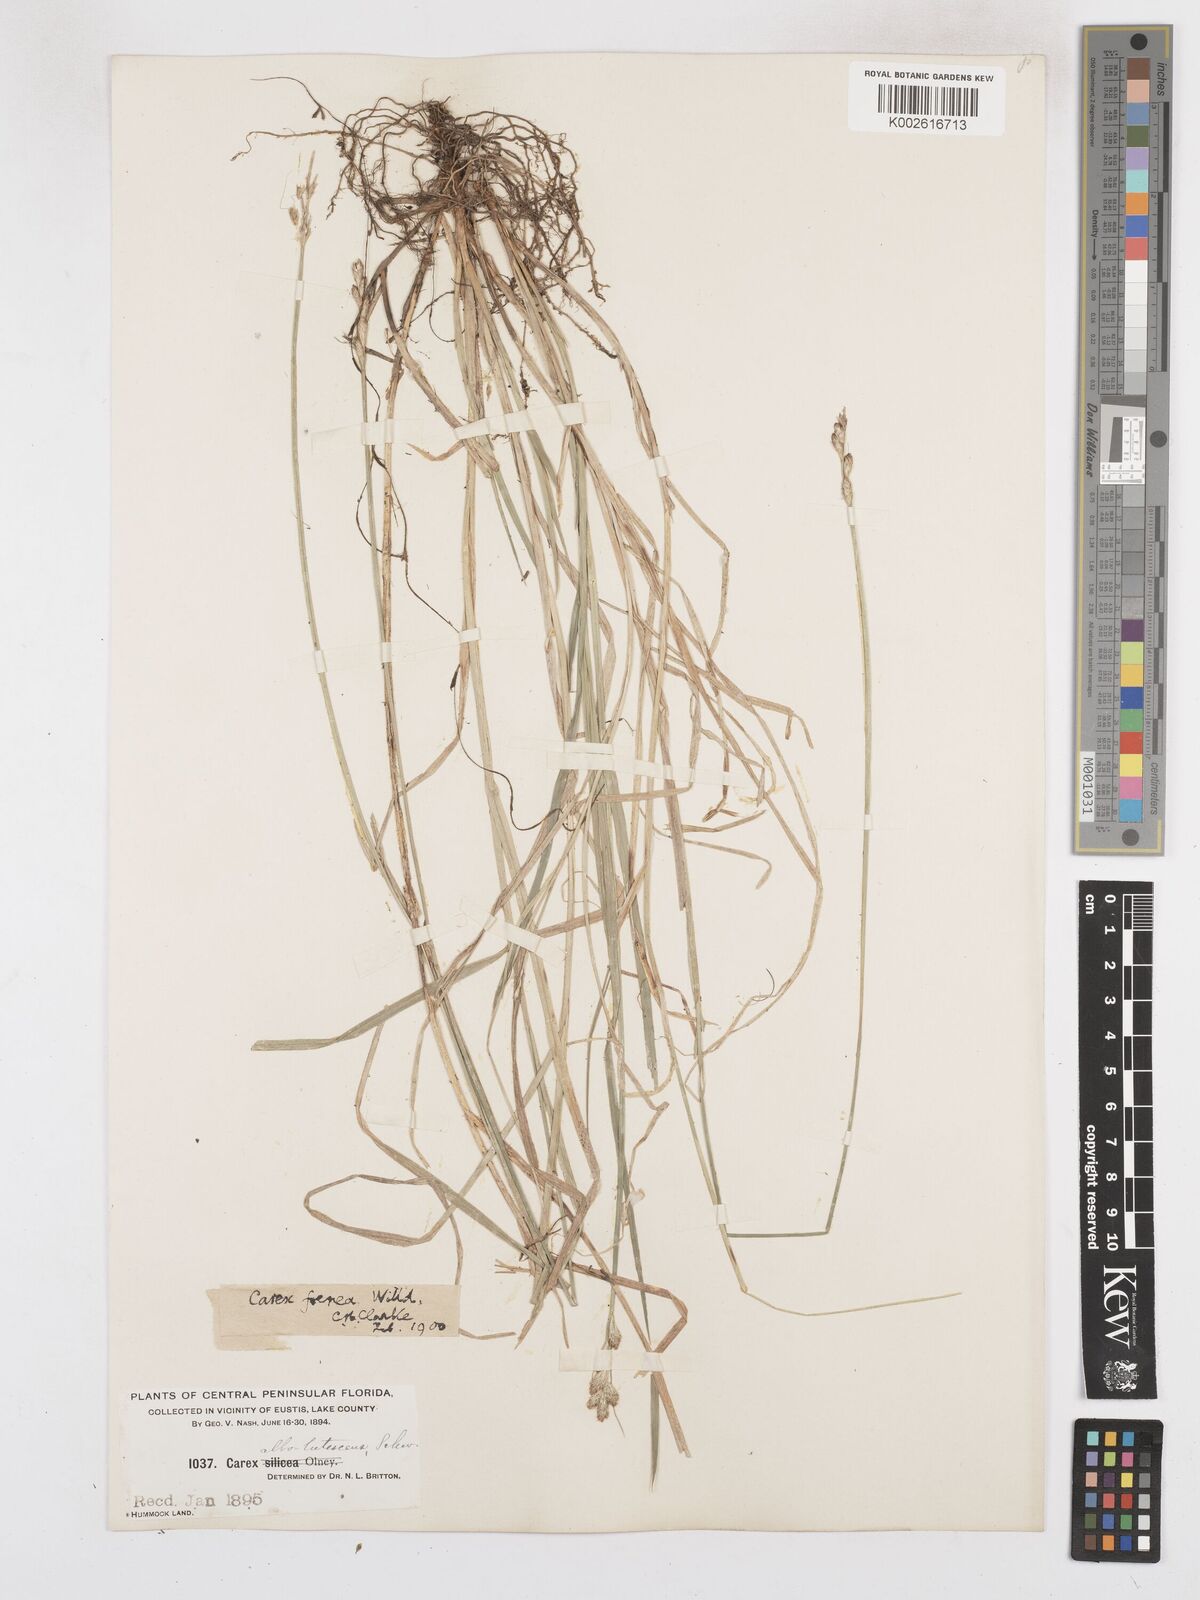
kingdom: Plantae
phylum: Tracheophyta
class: Liliopsida
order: Poales
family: Cyperaceae
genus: Carex
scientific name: Carex argyrantha
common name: Silvery-flowered sedge
